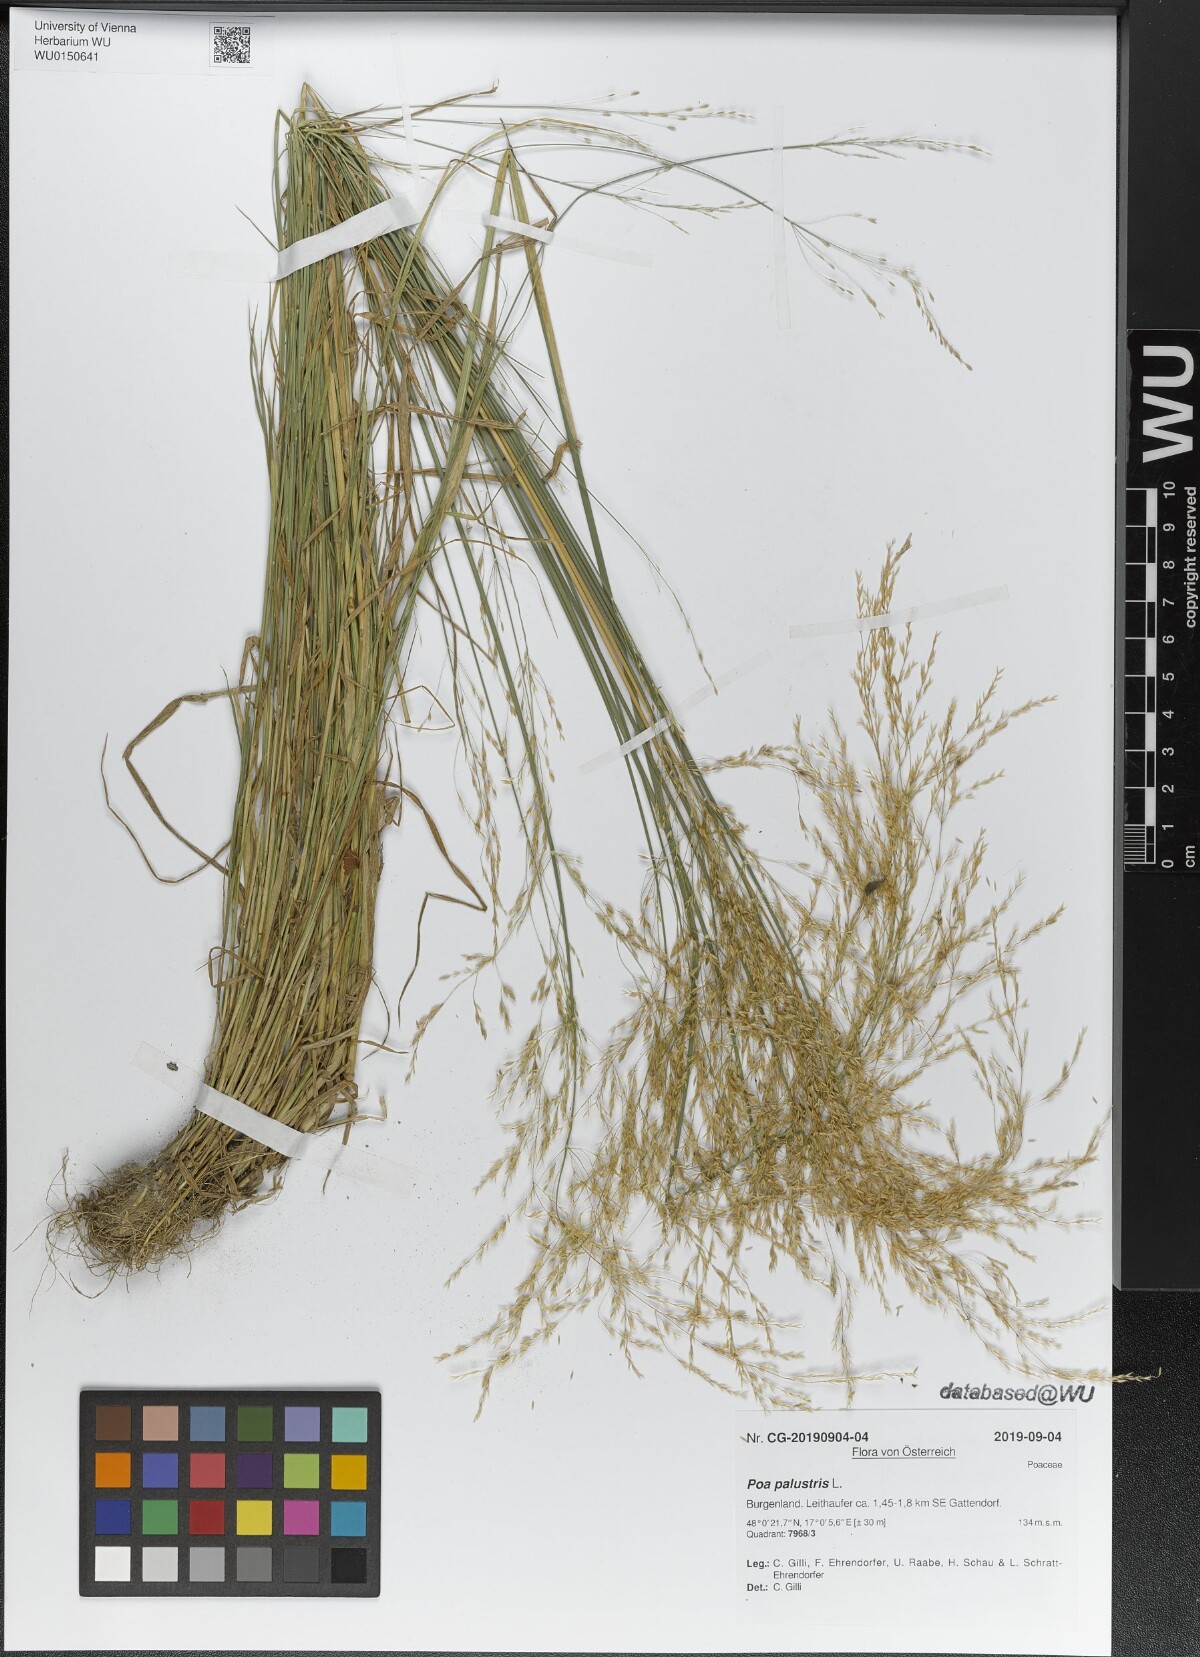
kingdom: Plantae
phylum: Tracheophyta
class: Liliopsida
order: Poales
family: Poaceae
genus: Poa
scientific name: Poa palustris
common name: Swamp meadow-grass
